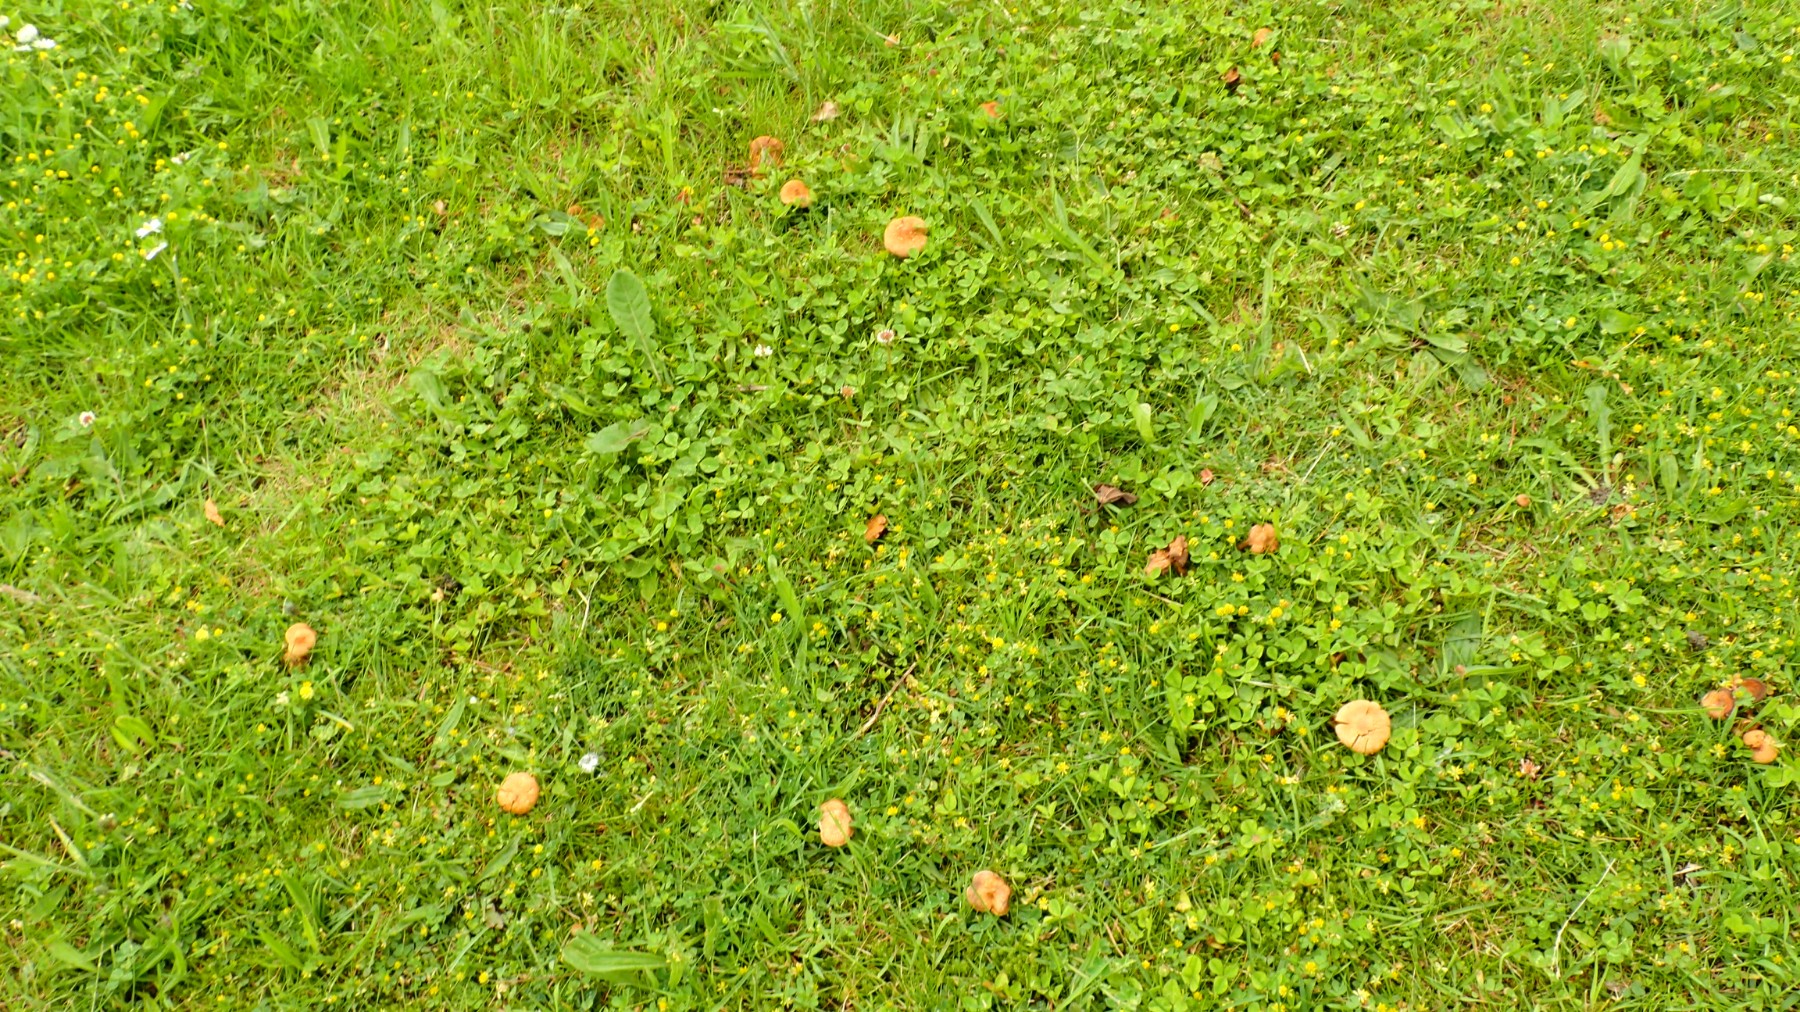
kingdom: Fungi
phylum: Basidiomycota
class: Agaricomycetes
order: Agaricales
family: Inocybaceae
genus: Inocybe
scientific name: Inocybe dulcamara
